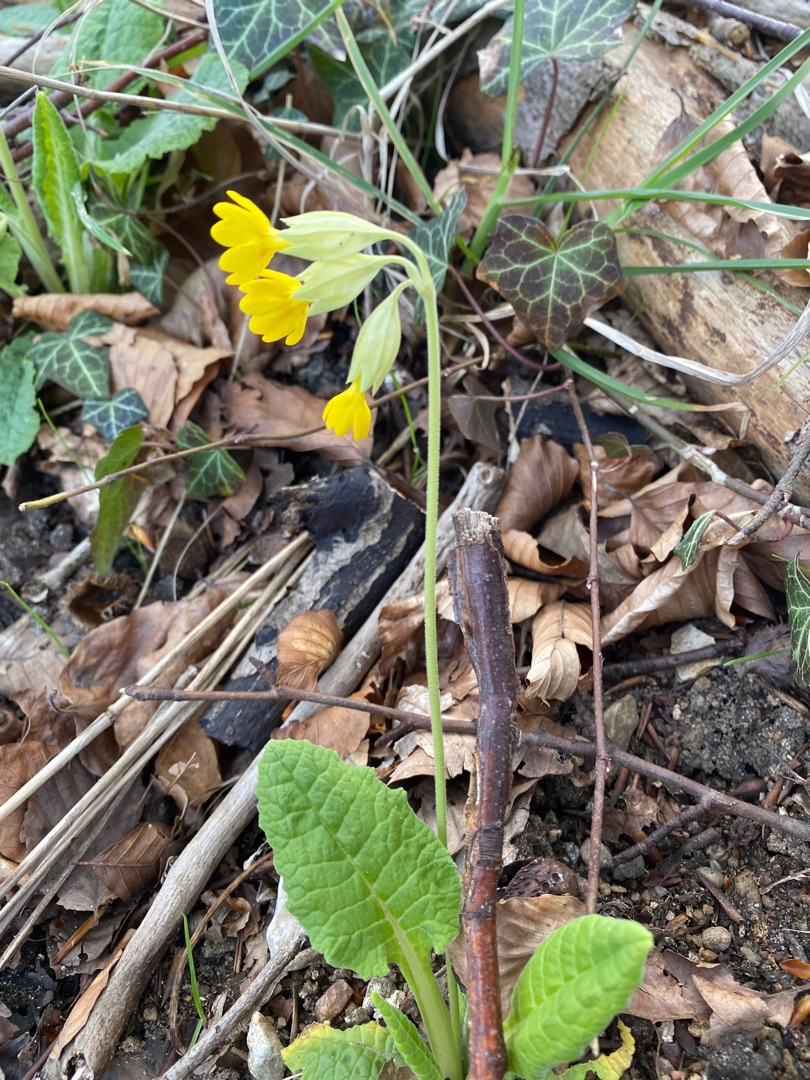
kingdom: Plantae
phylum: Tracheophyta
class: Magnoliopsida
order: Ericales
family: Primulaceae
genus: Primula
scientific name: Primula veris
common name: Hulkravet kodriver
